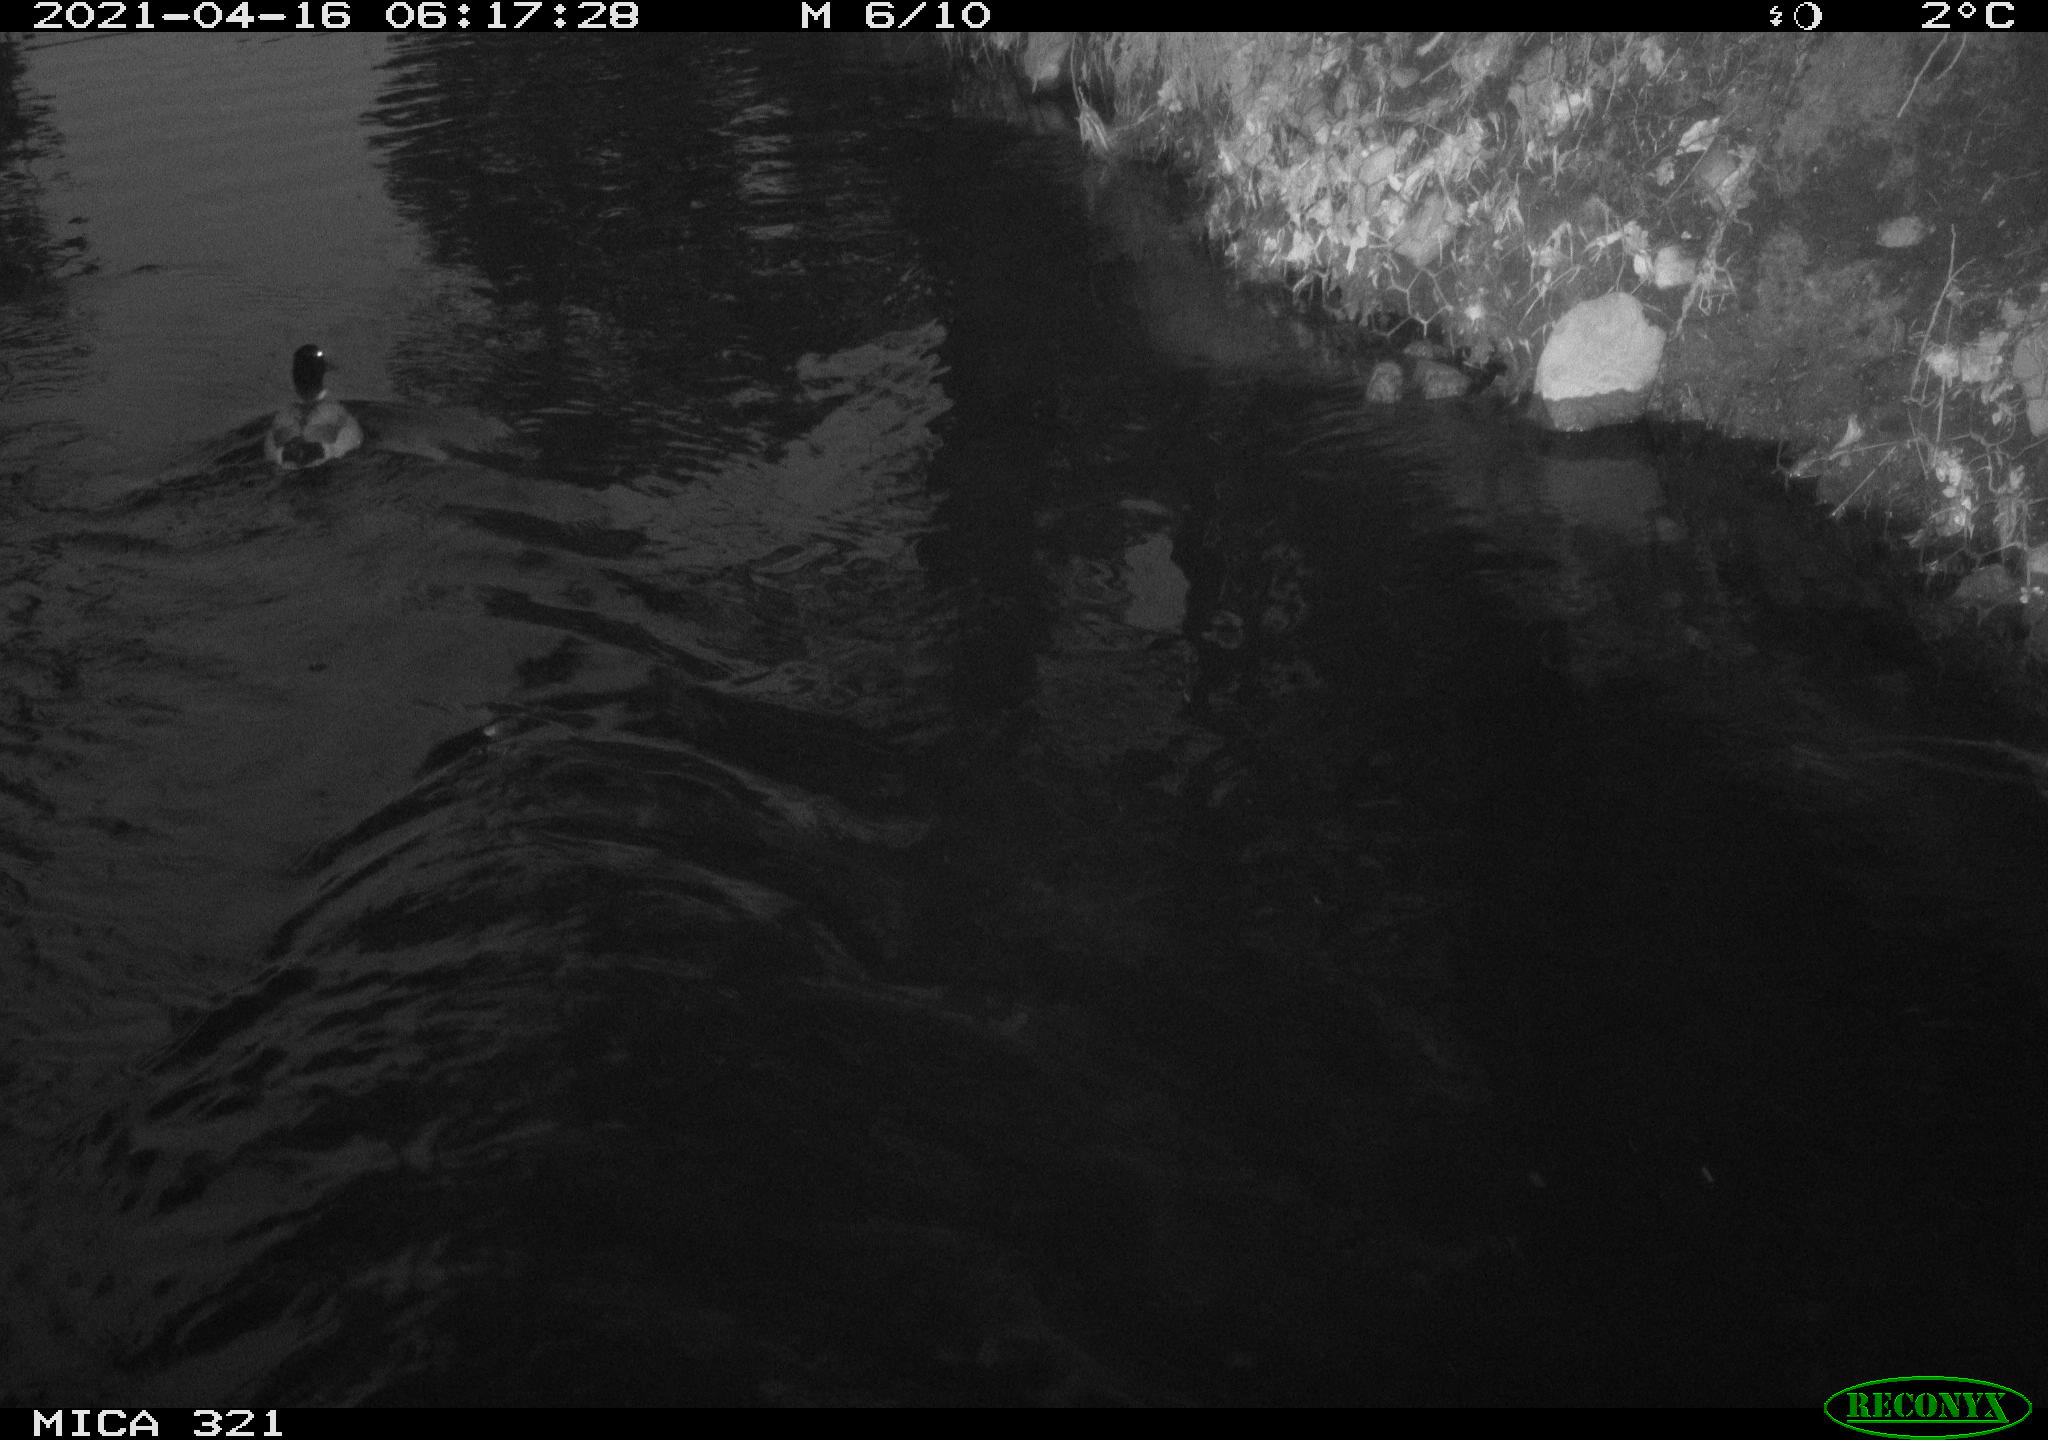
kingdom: Animalia
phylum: Chordata
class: Aves
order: Anseriformes
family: Anatidae
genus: Anas
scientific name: Anas
